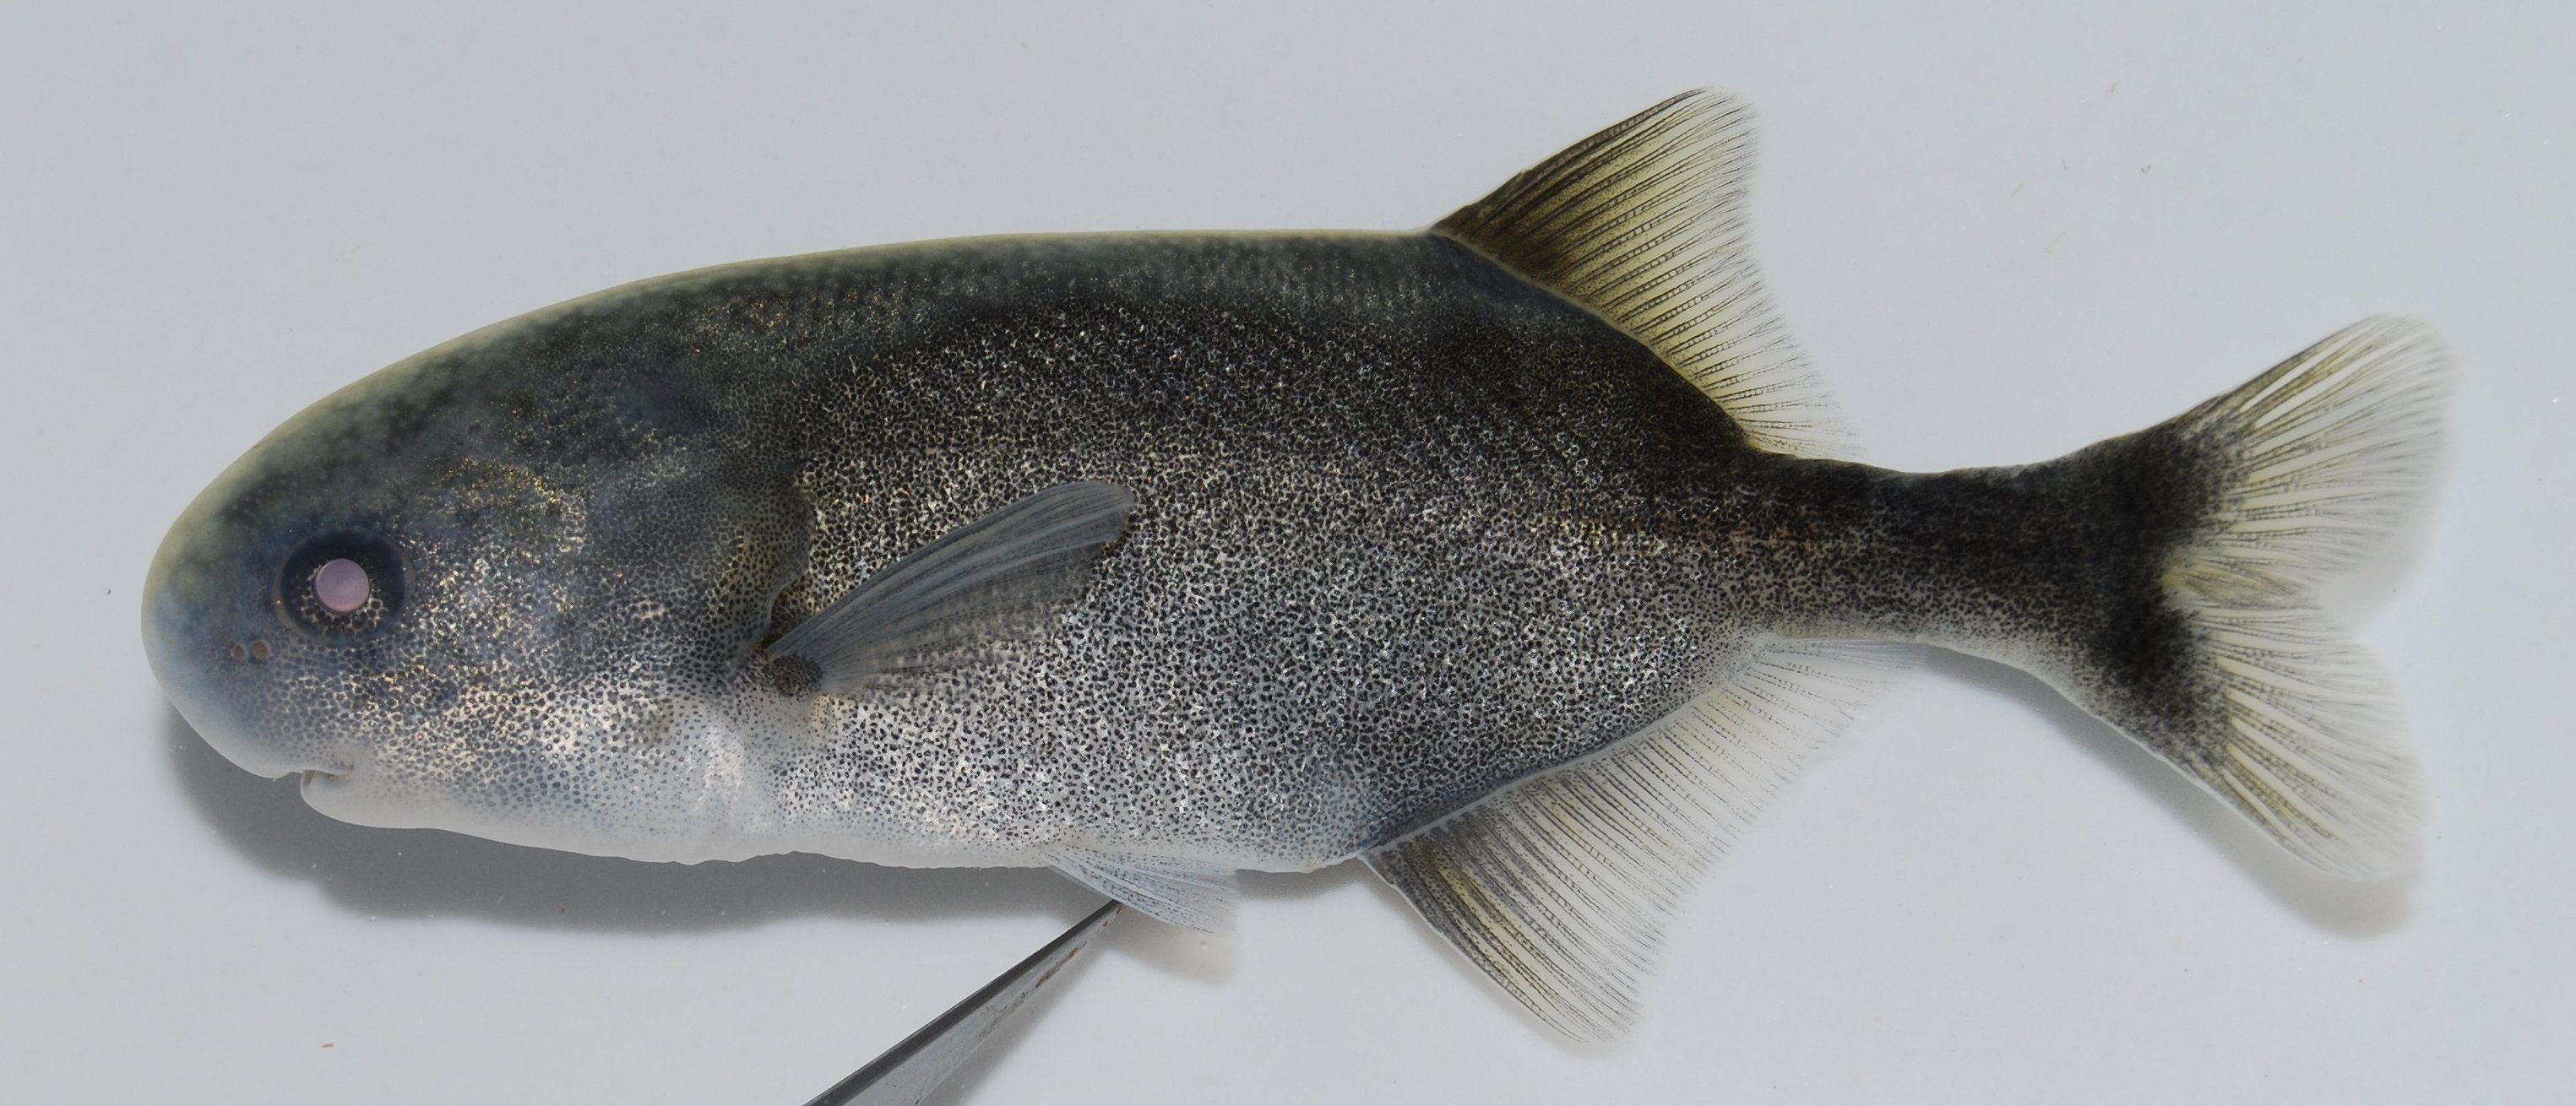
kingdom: Animalia
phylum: Chordata
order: Osteoglossiformes
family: Mormyridae
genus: Petrocephalus
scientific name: Petrocephalus catostoma
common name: Churchill
